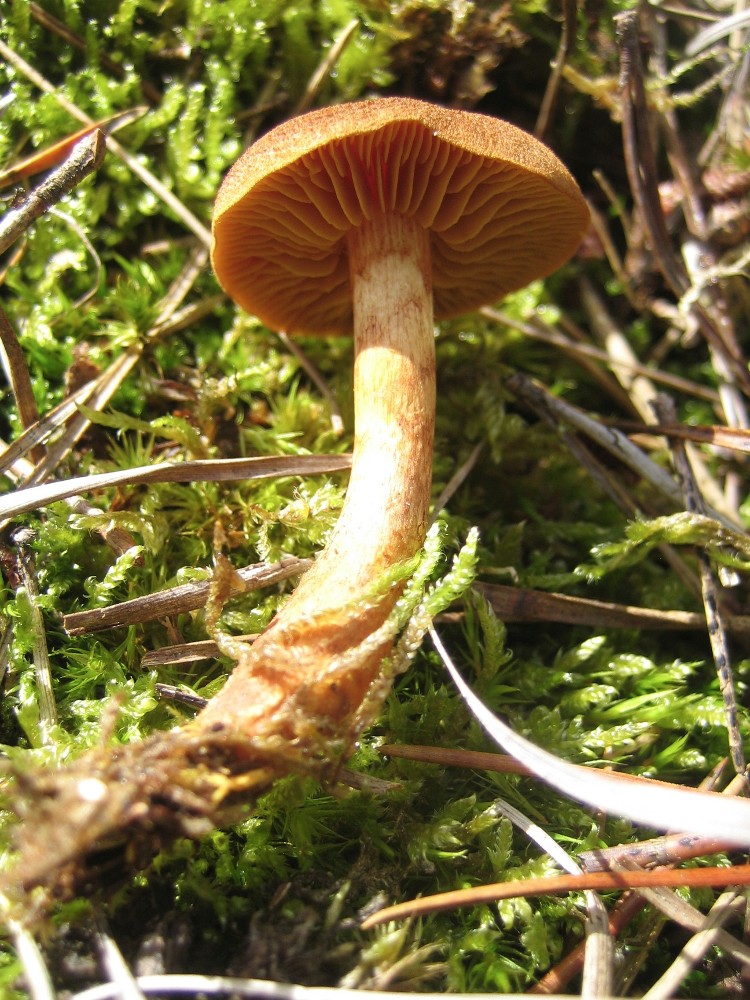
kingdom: Fungi
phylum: Basidiomycota
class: Agaricomycetes
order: Agaricales
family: Cortinariaceae
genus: Cortinarius
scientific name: Cortinarius
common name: gulbladet slørhat
